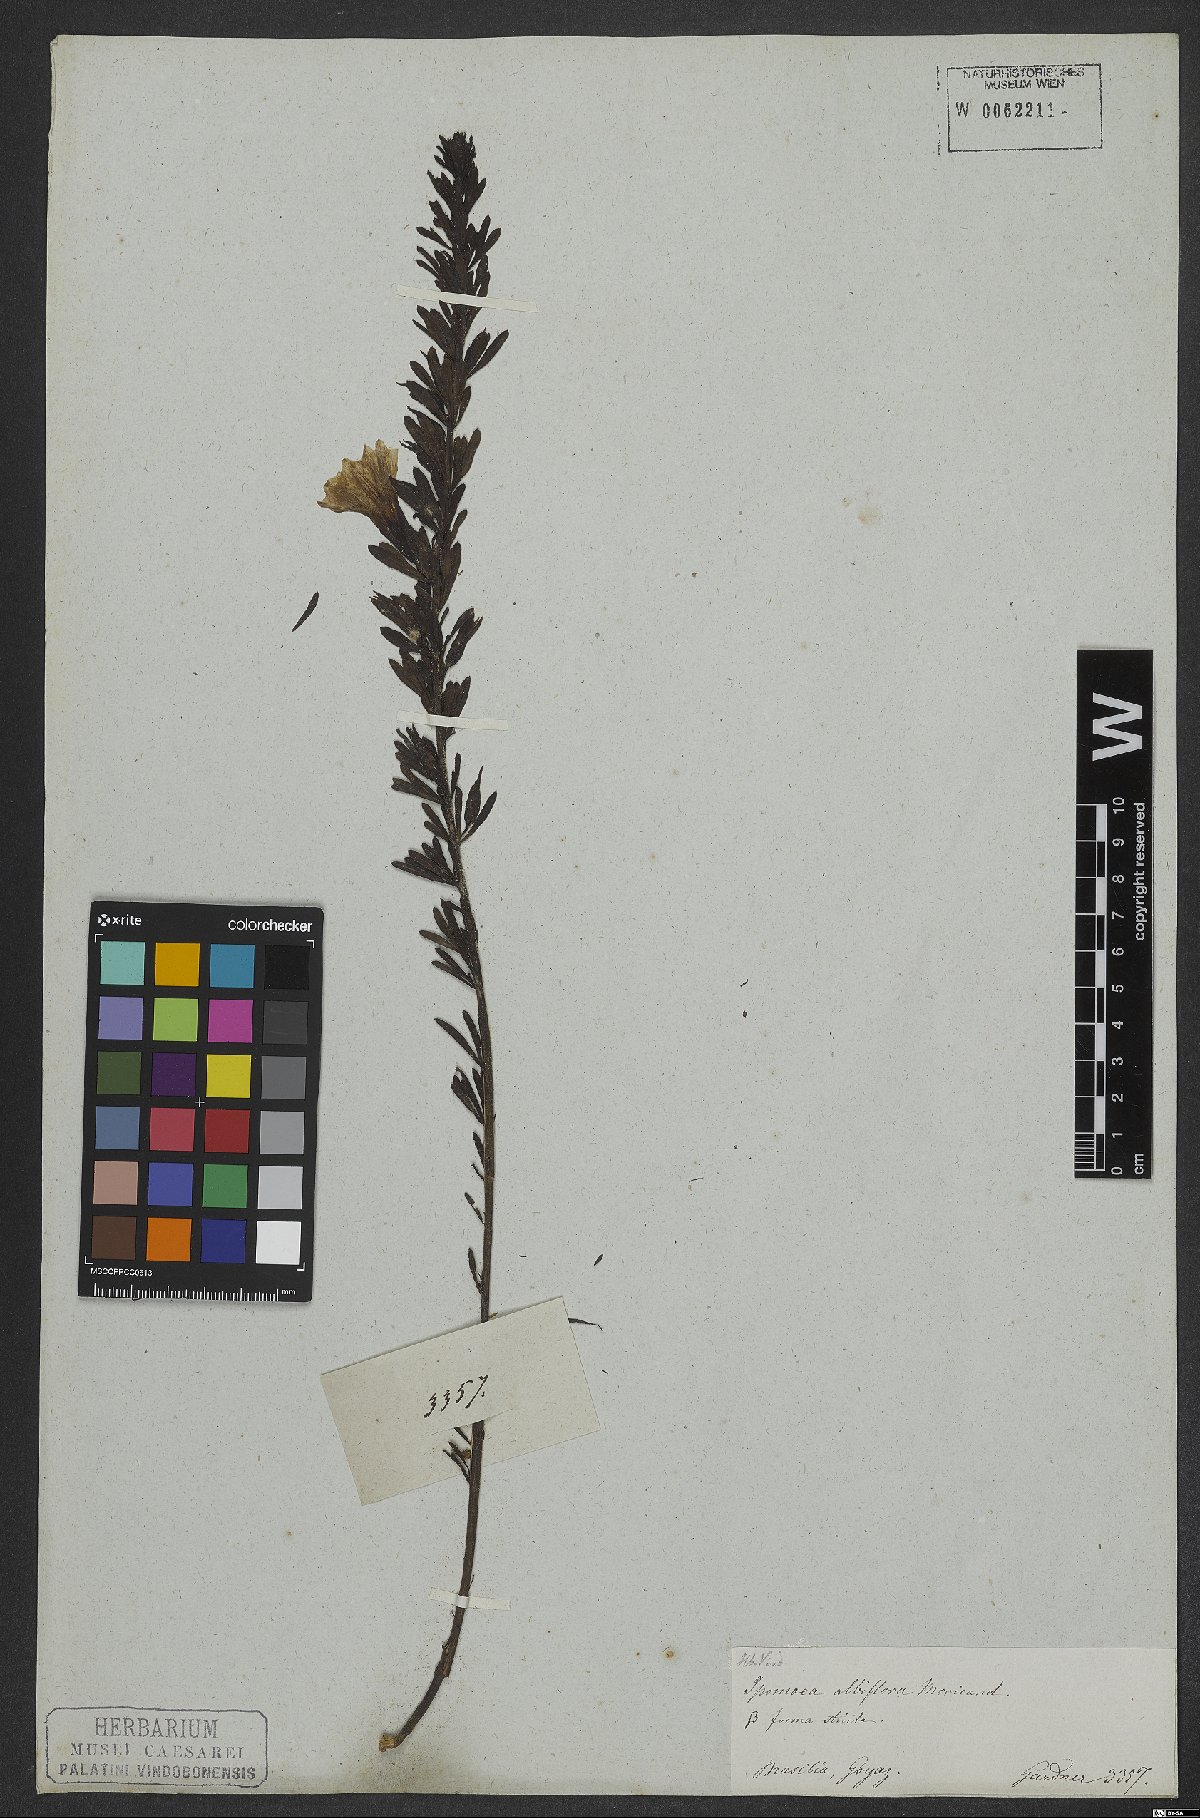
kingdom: Plantae
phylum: Tracheophyta
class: Magnoliopsida
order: Solanales
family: Convolvulaceae
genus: Distimake
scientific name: Distimake digitatus
